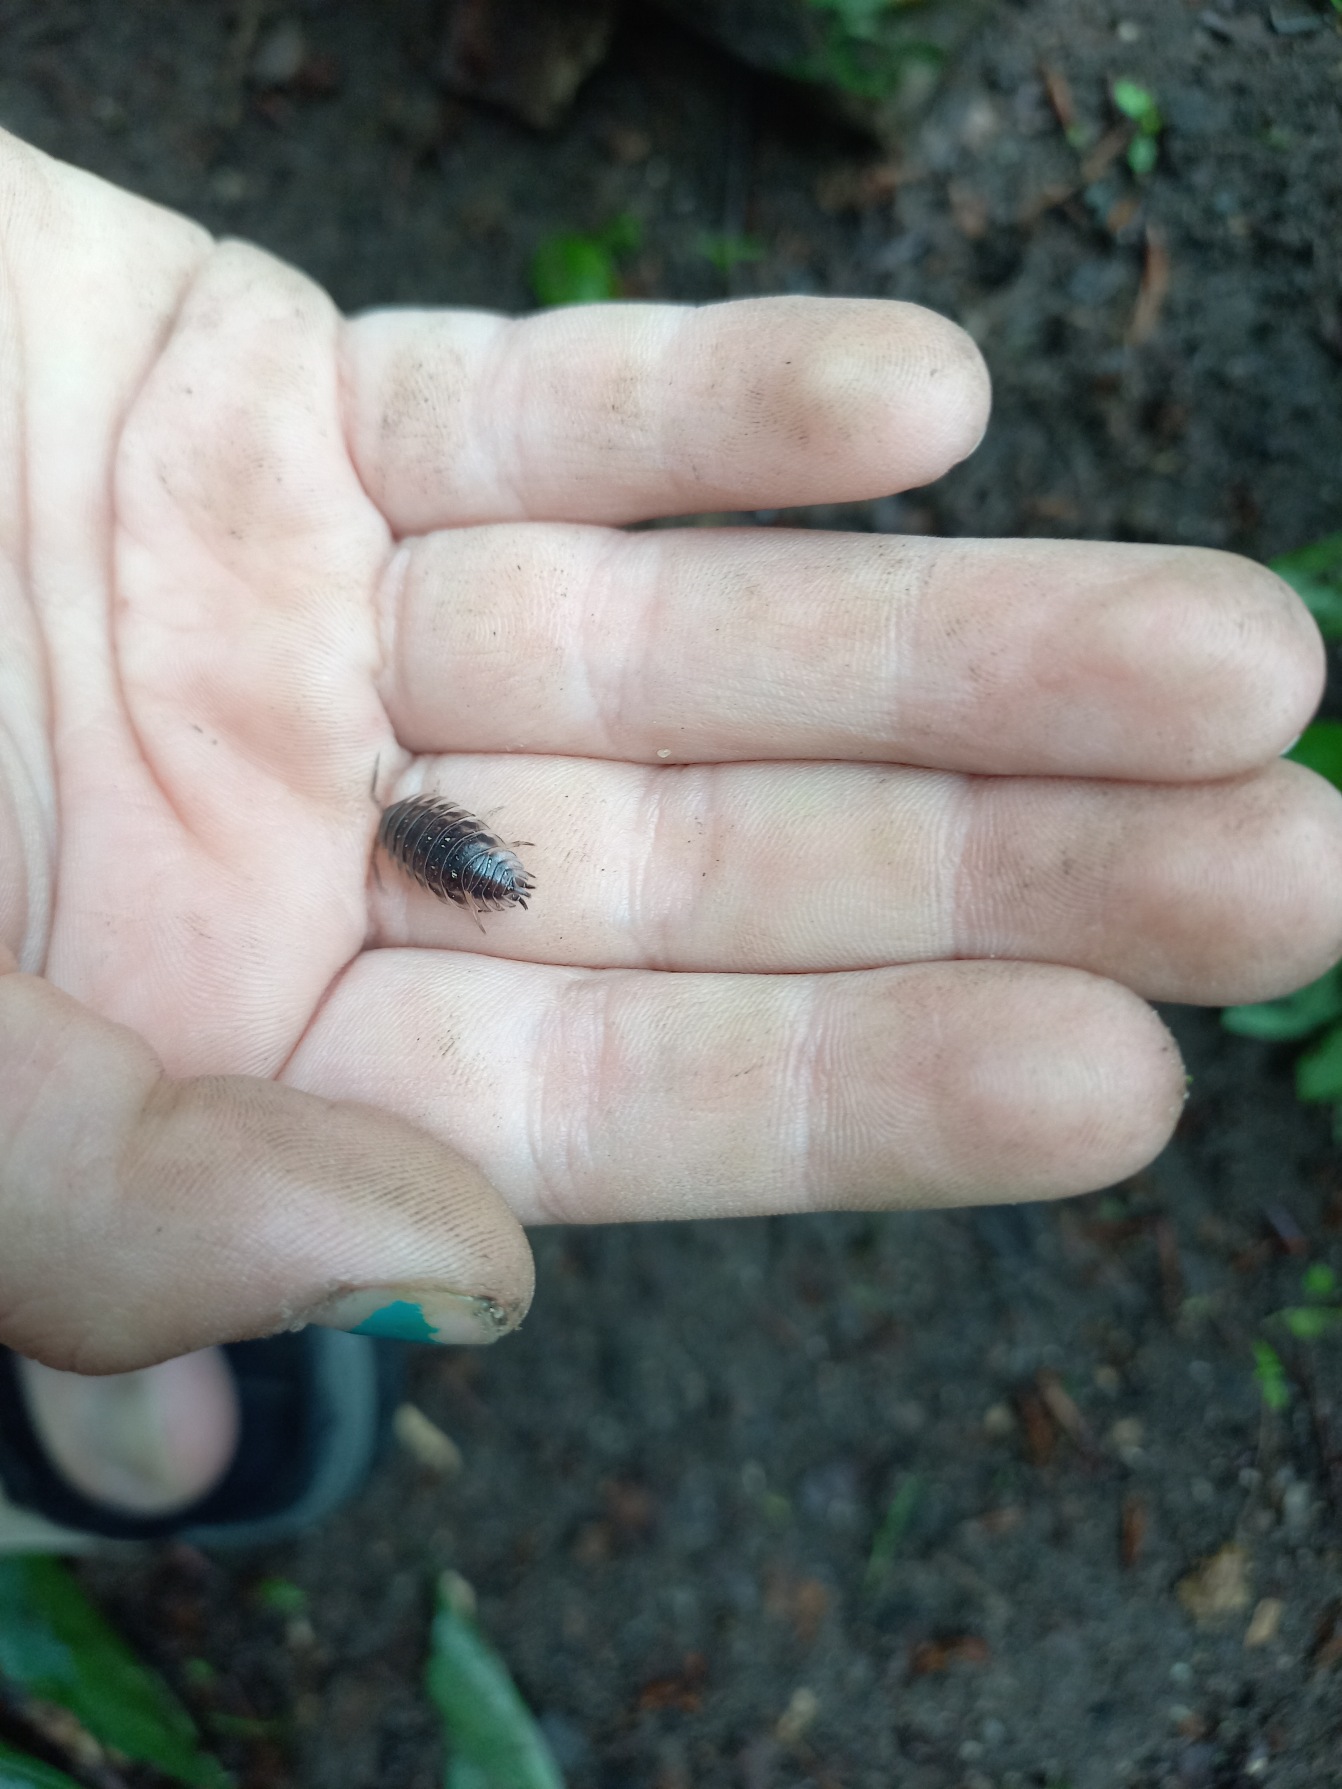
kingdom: Animalia
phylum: Arthropoda
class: Malacostraca
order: Isopoda
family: Oniscidae
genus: Oniscus
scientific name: Oniscus asellus
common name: Glat bænkebider
